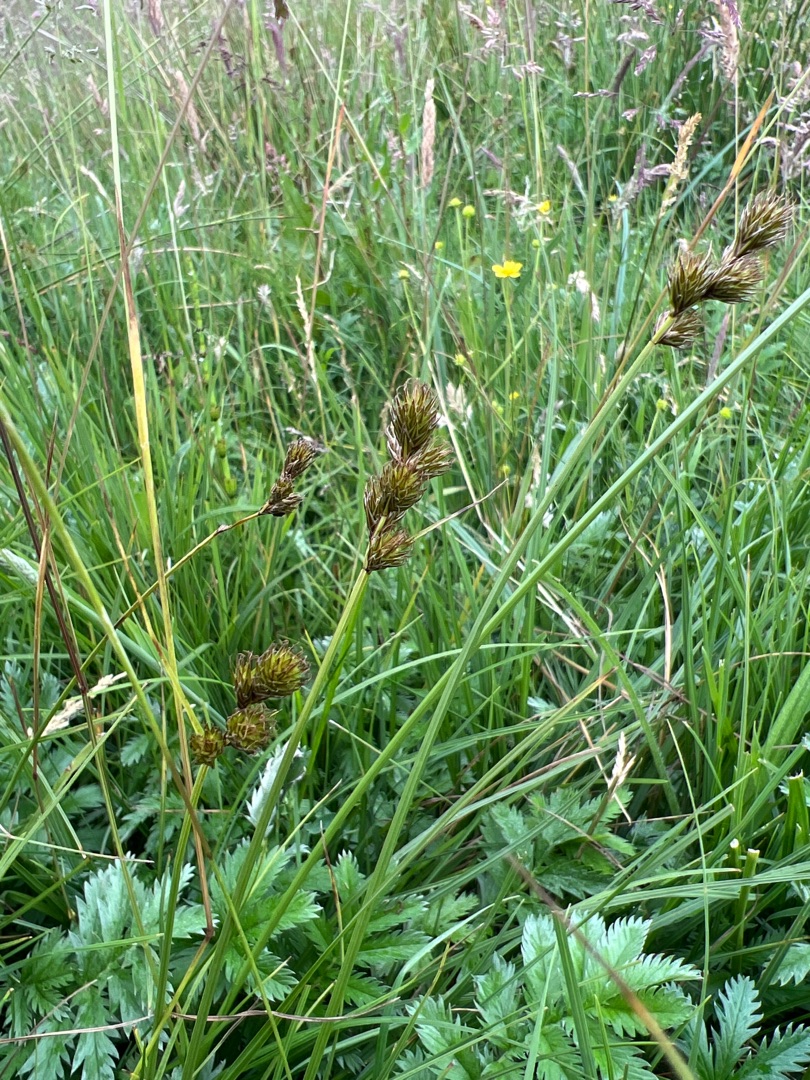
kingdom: Plantae
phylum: Tracheophyta
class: Liliopsida
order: Poales
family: Cyperaceae
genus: Carex
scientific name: Carex leporina
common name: Hare-star
